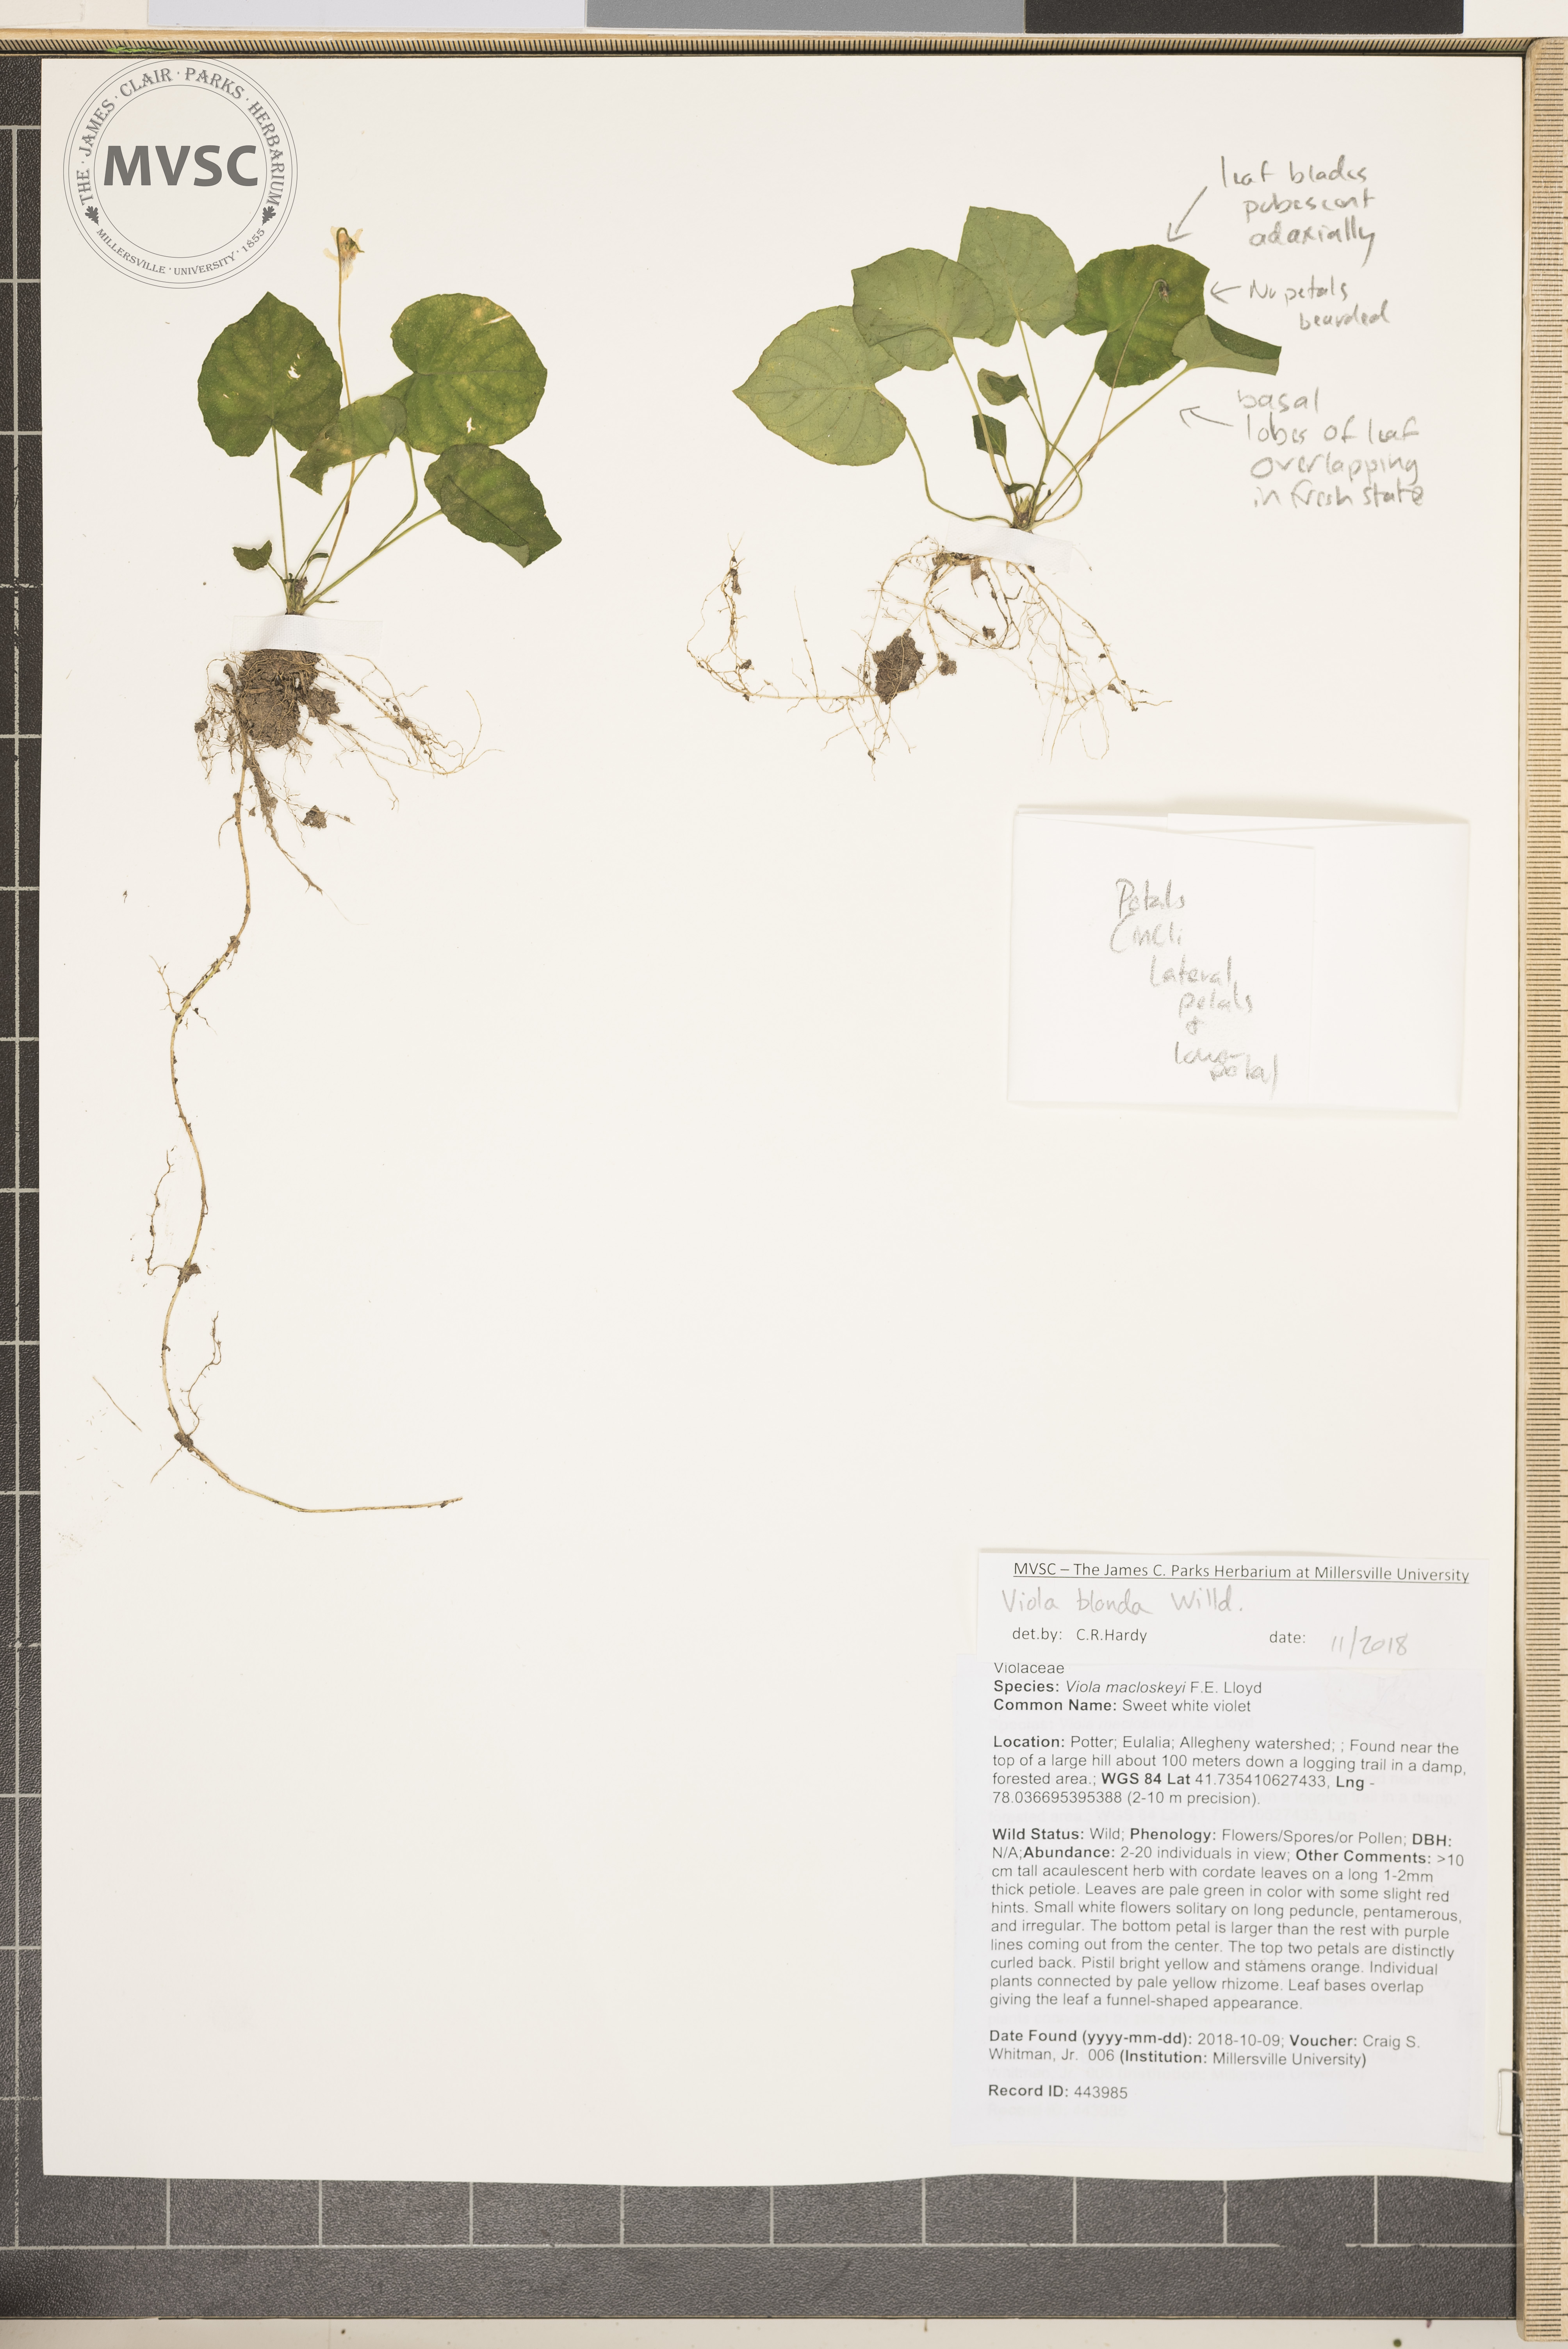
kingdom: Plantae
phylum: Tracheophyta
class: Magnoliopsida
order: Malpighiales
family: Violaceae
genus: Viola
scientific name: Viola blanda
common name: Sweet White violet
